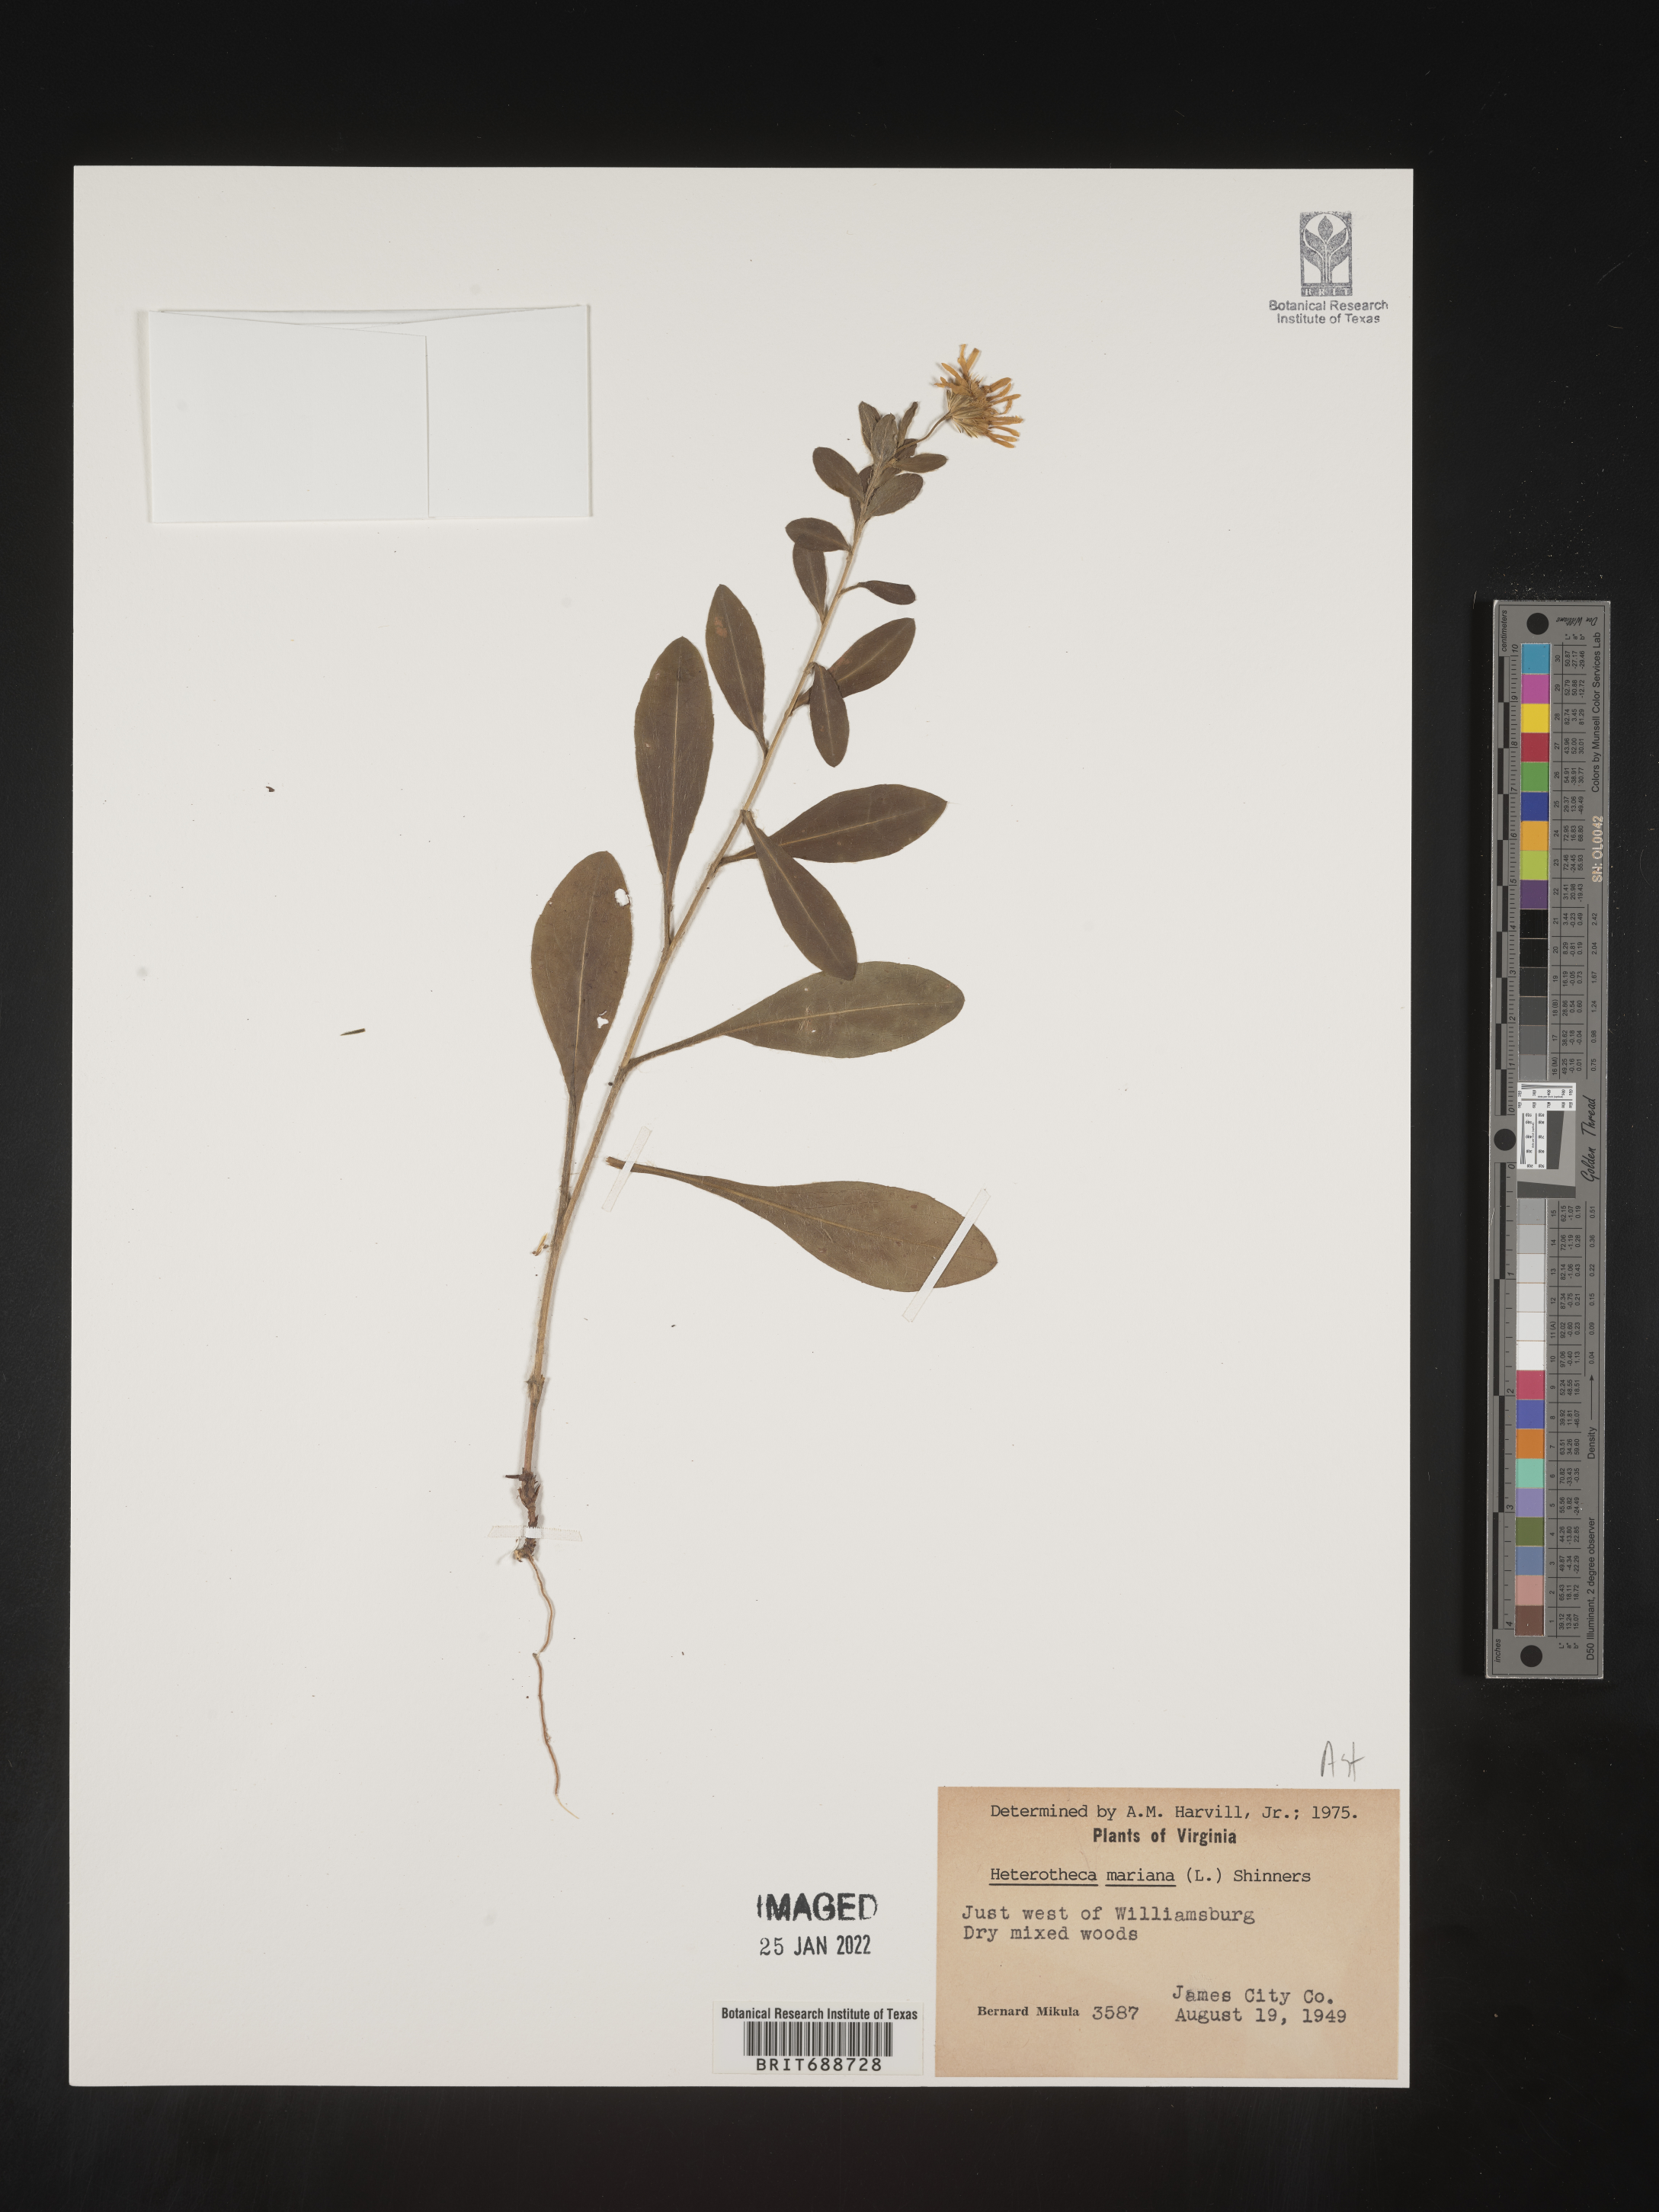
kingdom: Plantae
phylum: Tracheophyta
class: Magnoliopsida
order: Asterales
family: Asteraceae
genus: Chrysopsis
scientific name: Chrysopsis mariana
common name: Maryland golden-aster
